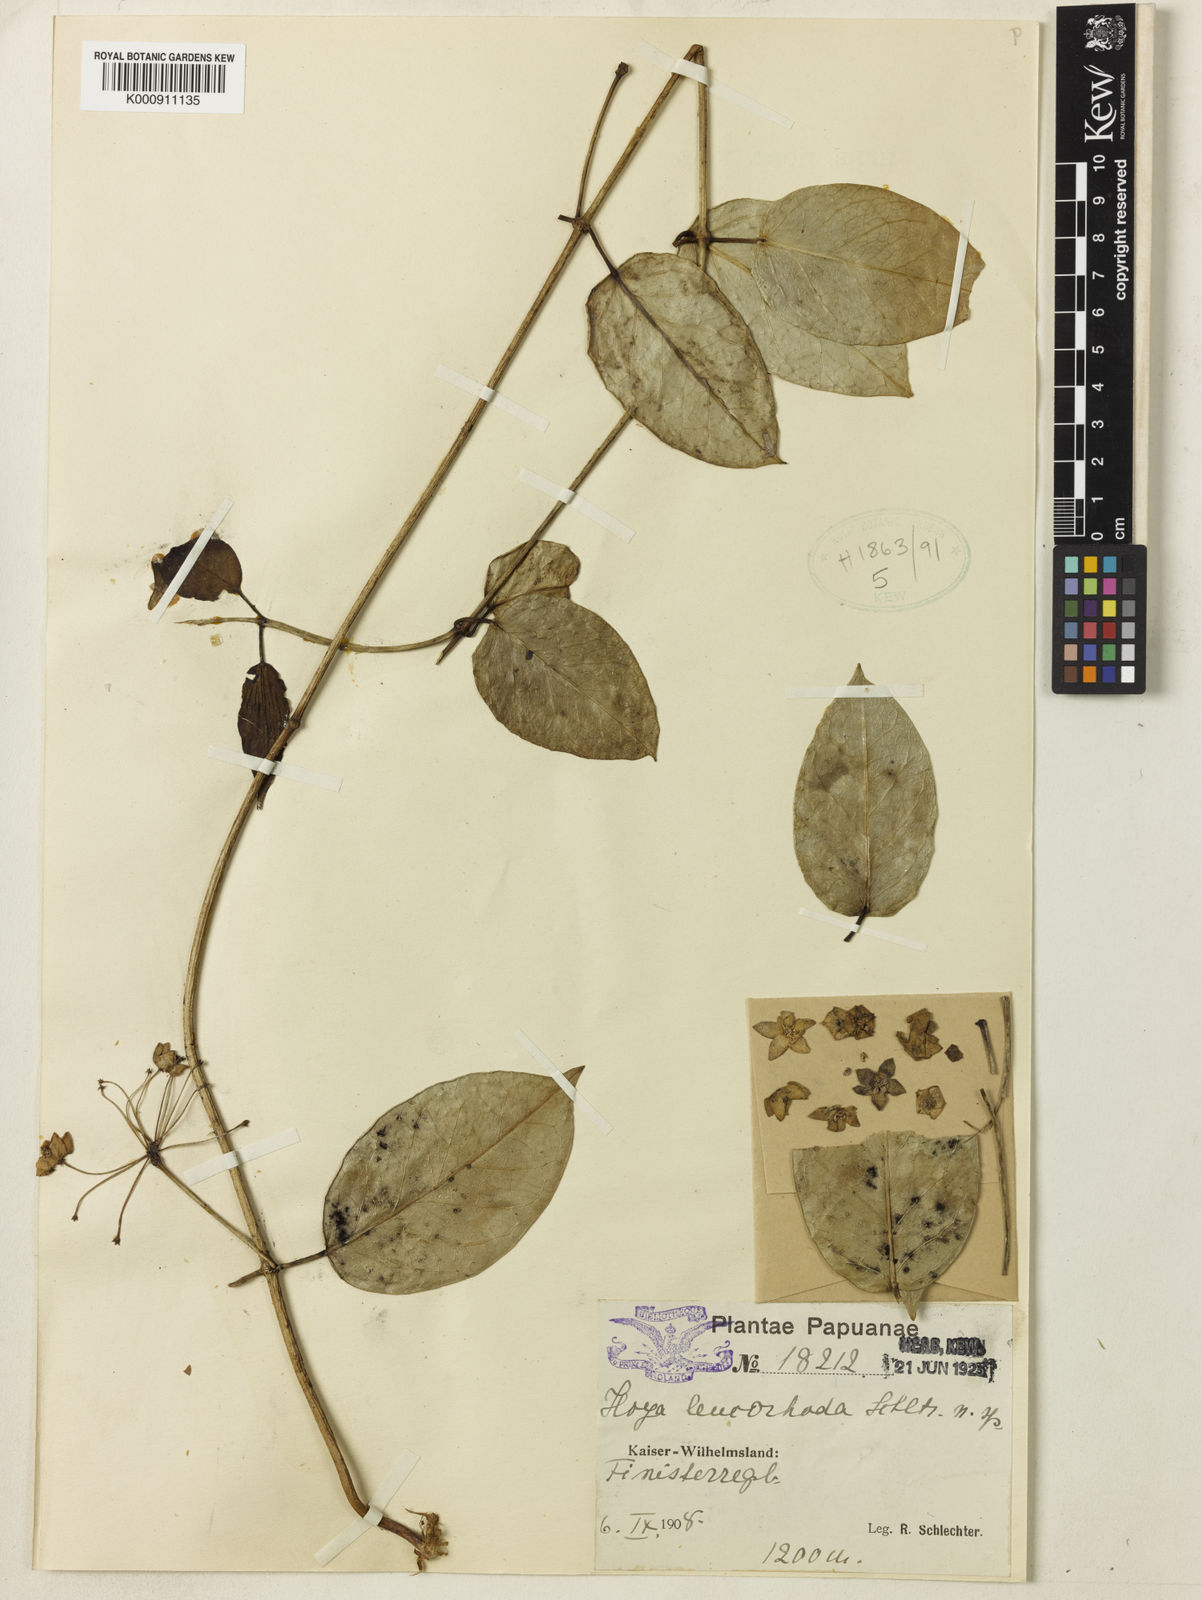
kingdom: Plantae
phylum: Tracheophyta
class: Magnoliopsida
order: Gentianales
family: Apocynaceae
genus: Hoya
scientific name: Hoya subglabra
